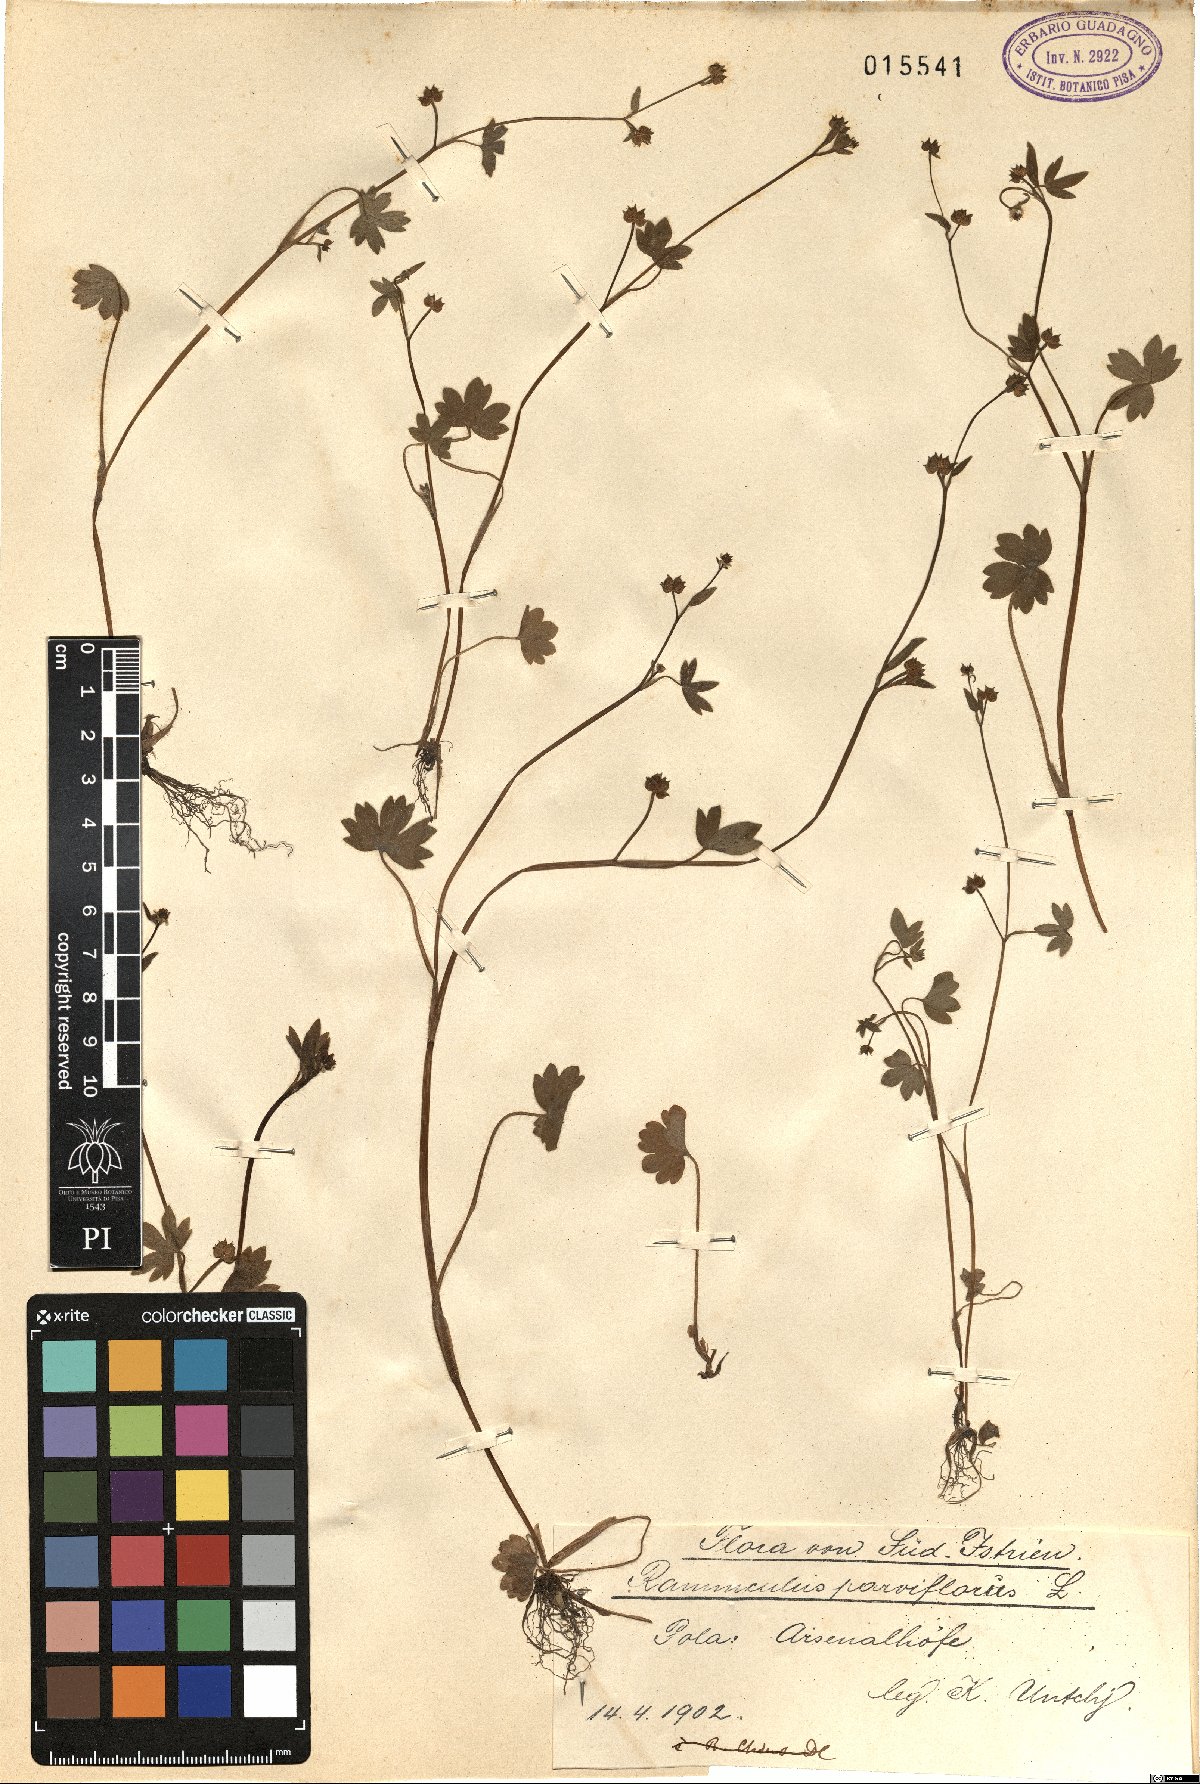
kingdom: Plantae
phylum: Tracheophyta
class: Magnoliopsida
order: Ranunculales
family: Ranunculaceae
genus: Ranunculus
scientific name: Ranunculus parviflorus
